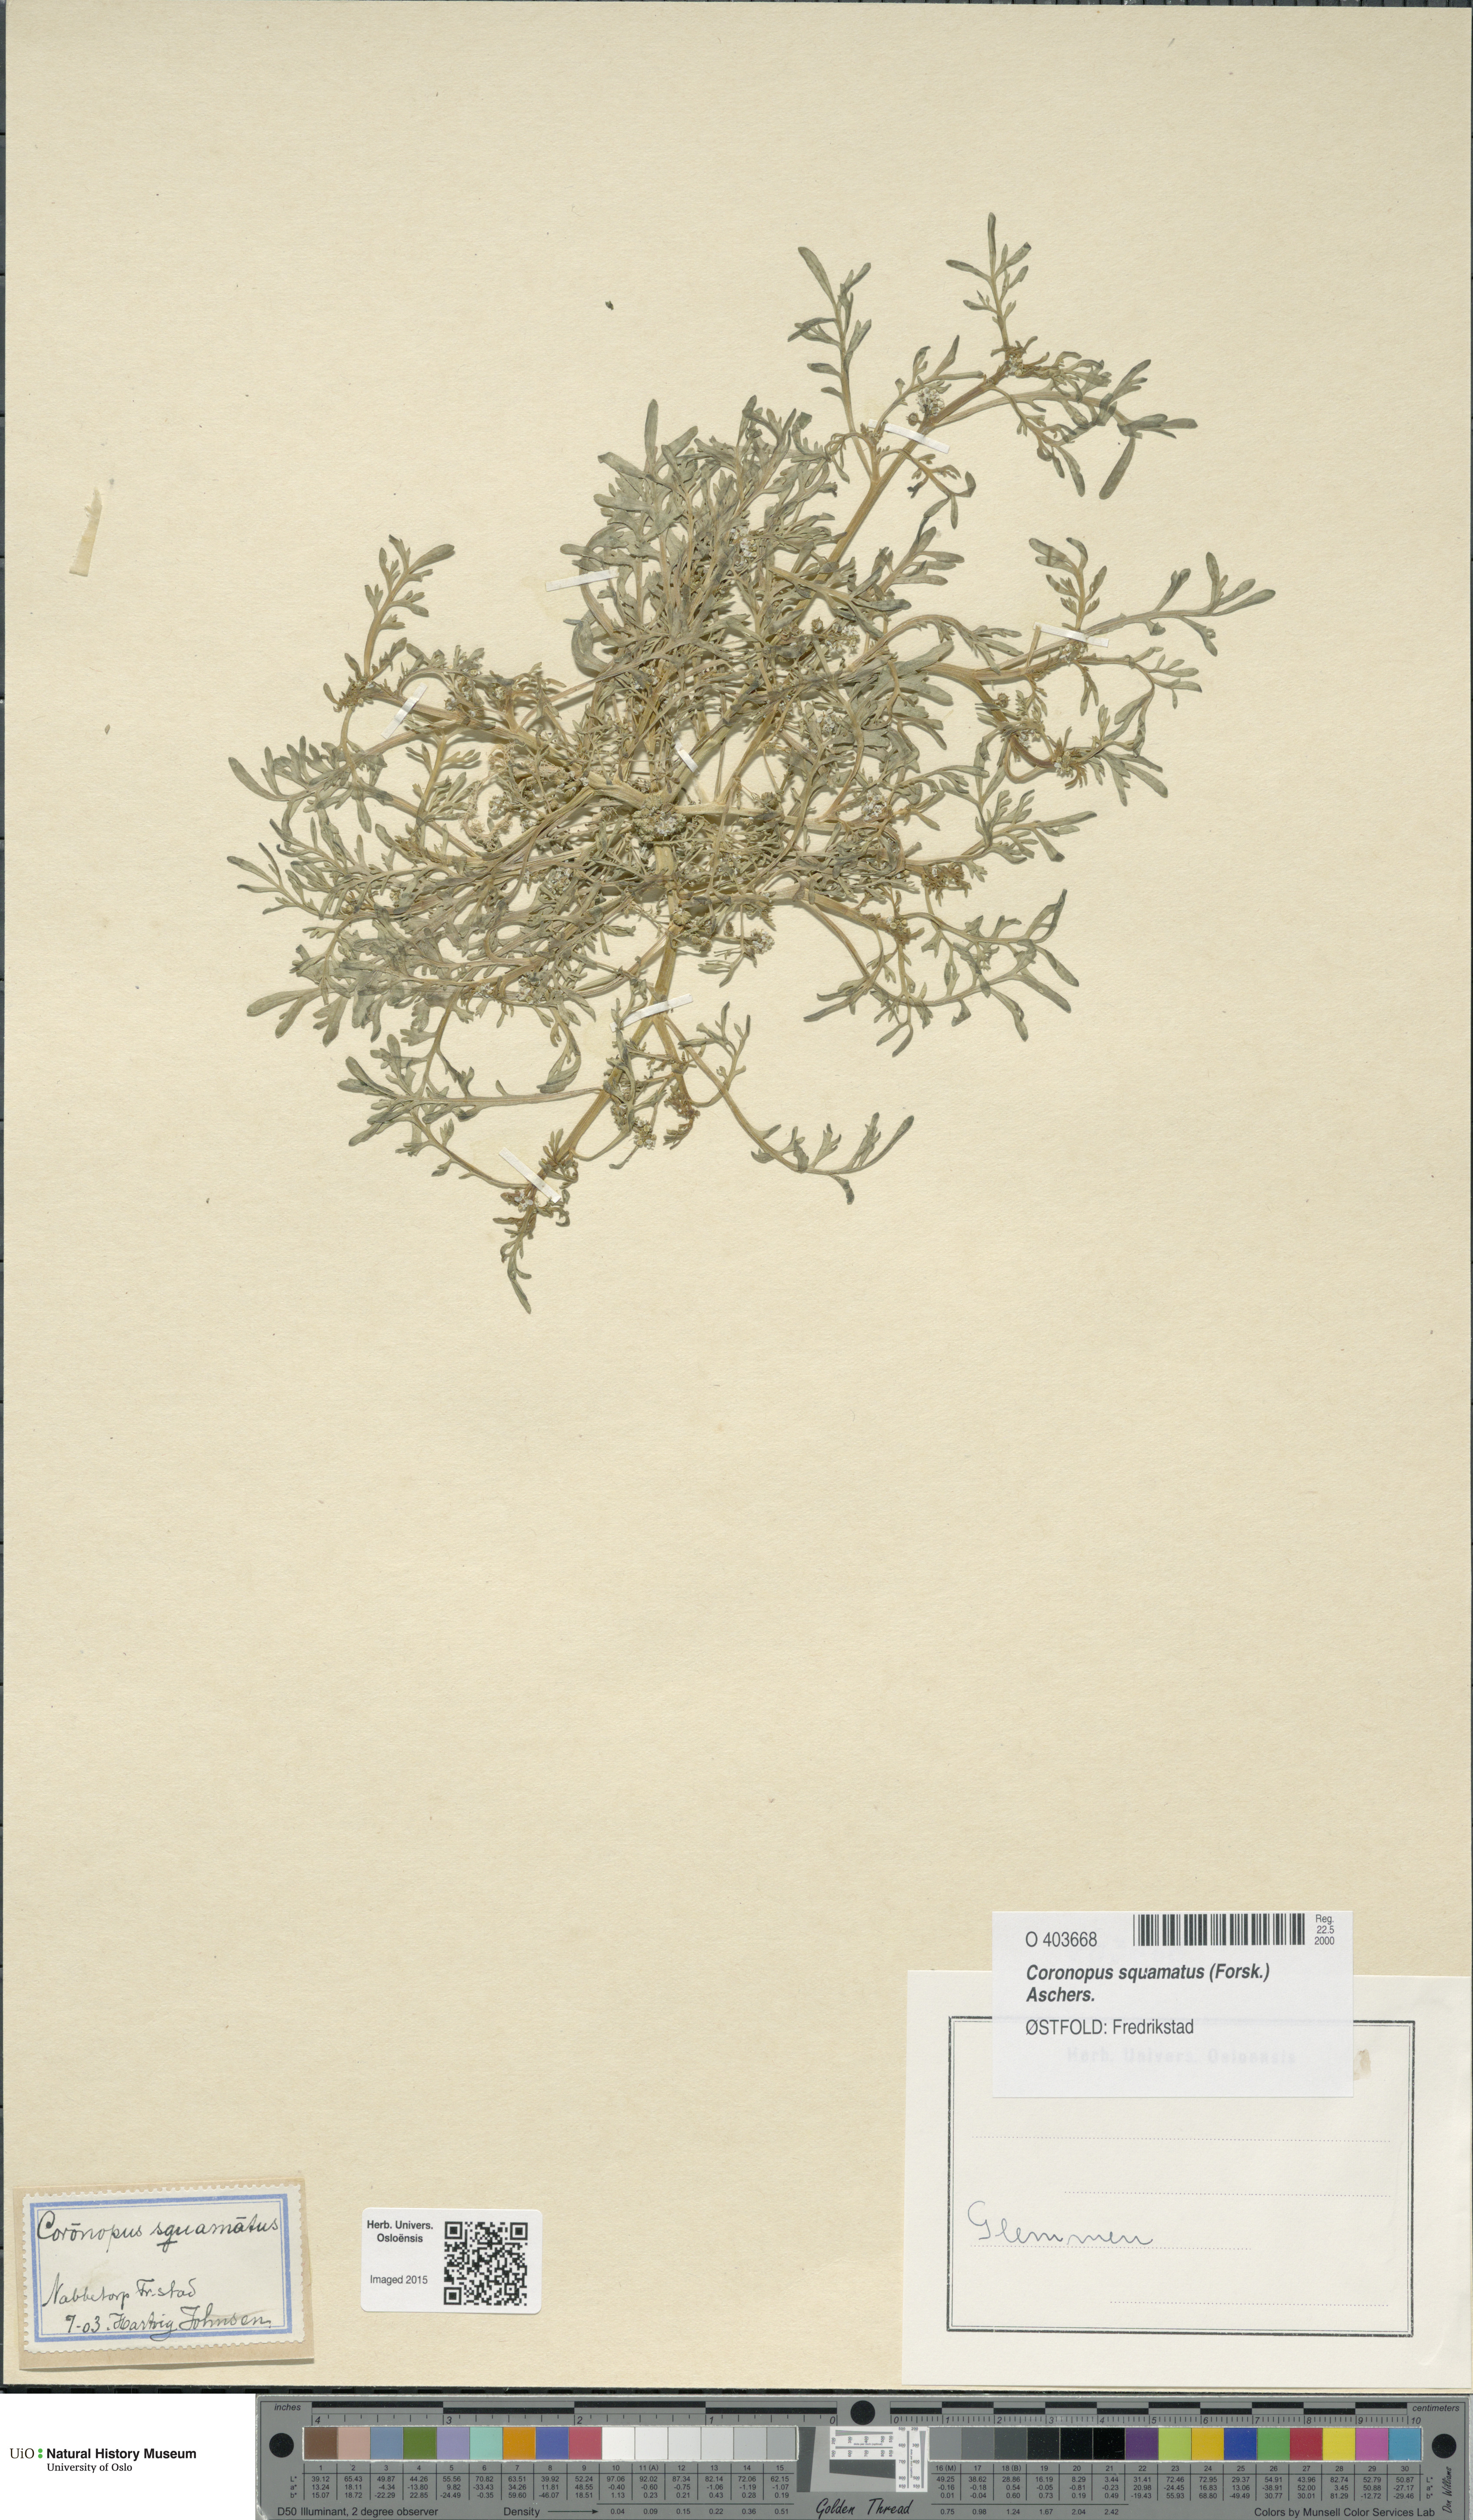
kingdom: Plantae
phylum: Tracheophyta
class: Magnoliopsida
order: Brassicales
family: Brassicaceae
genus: Lepidium
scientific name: Lepidium coronopus
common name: Greater swinecress
